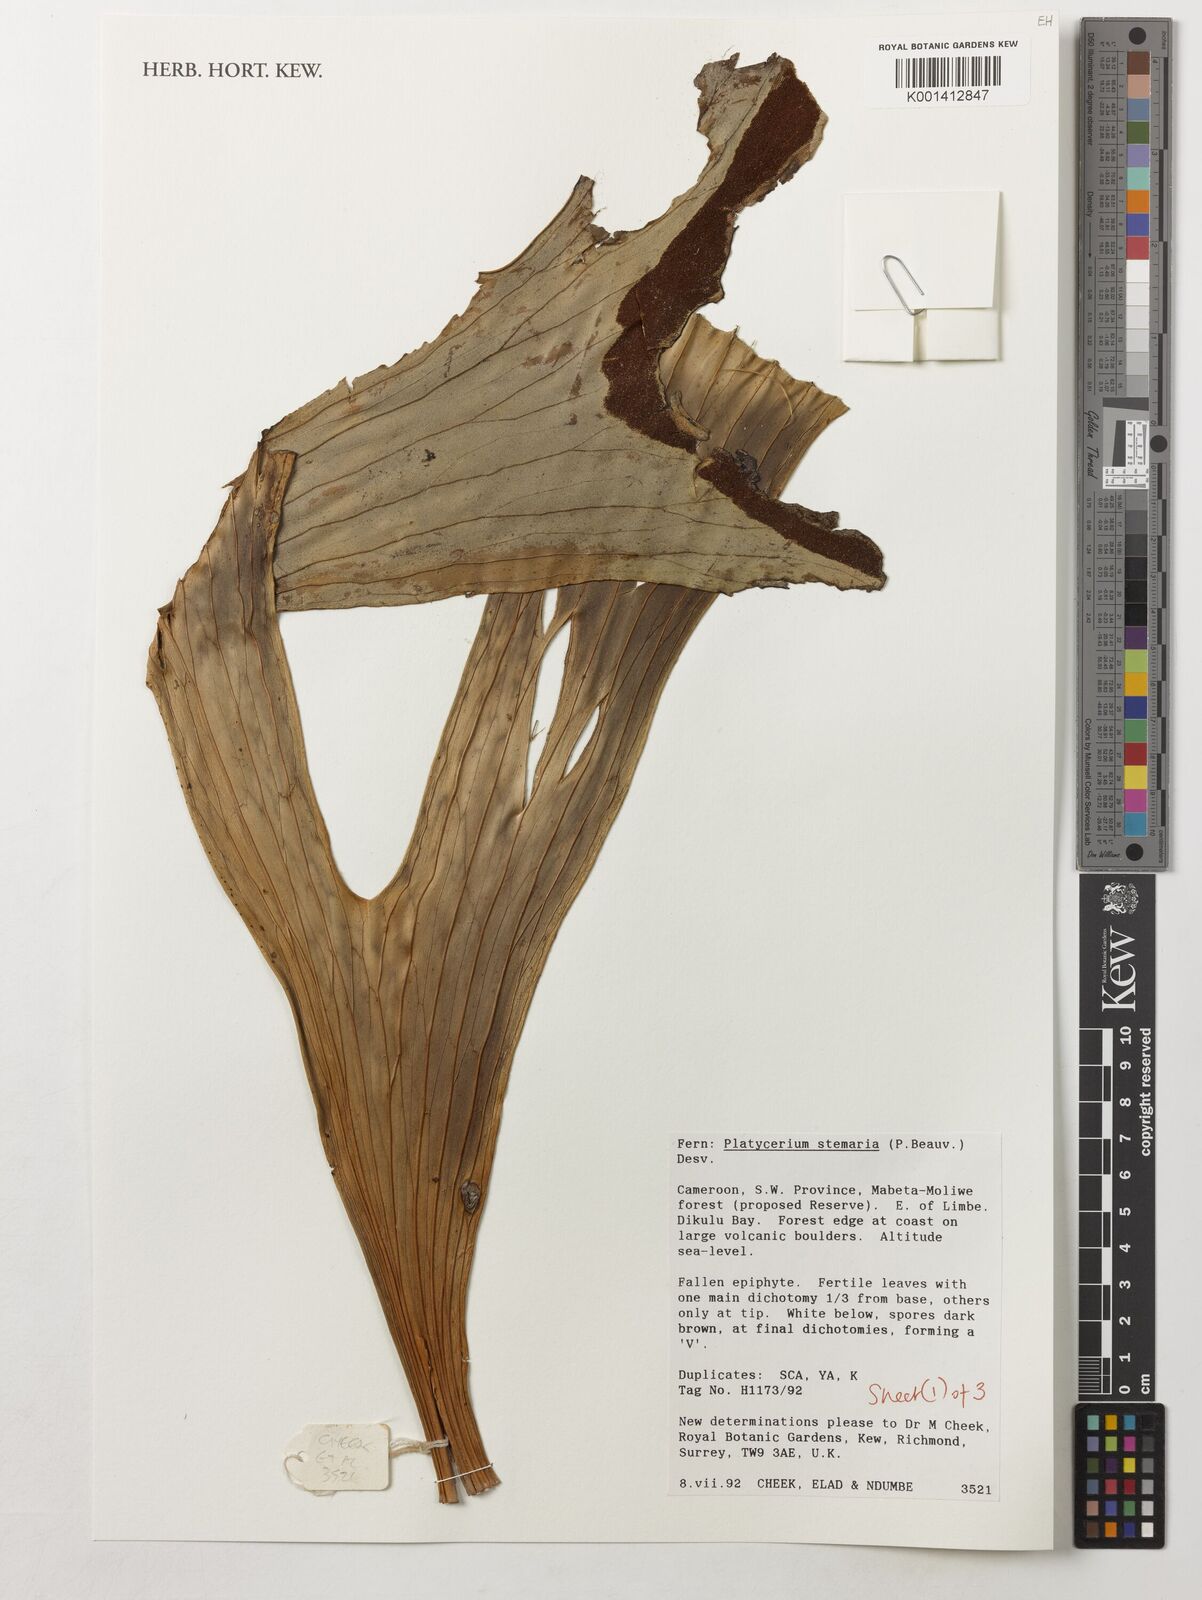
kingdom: Plantae
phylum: Tracheophyta
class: Polypodiopsida
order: Polypodiales
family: Polypodiaceae
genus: Platycerium
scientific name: Platycerium stemaria
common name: Triangular staghorn fern
